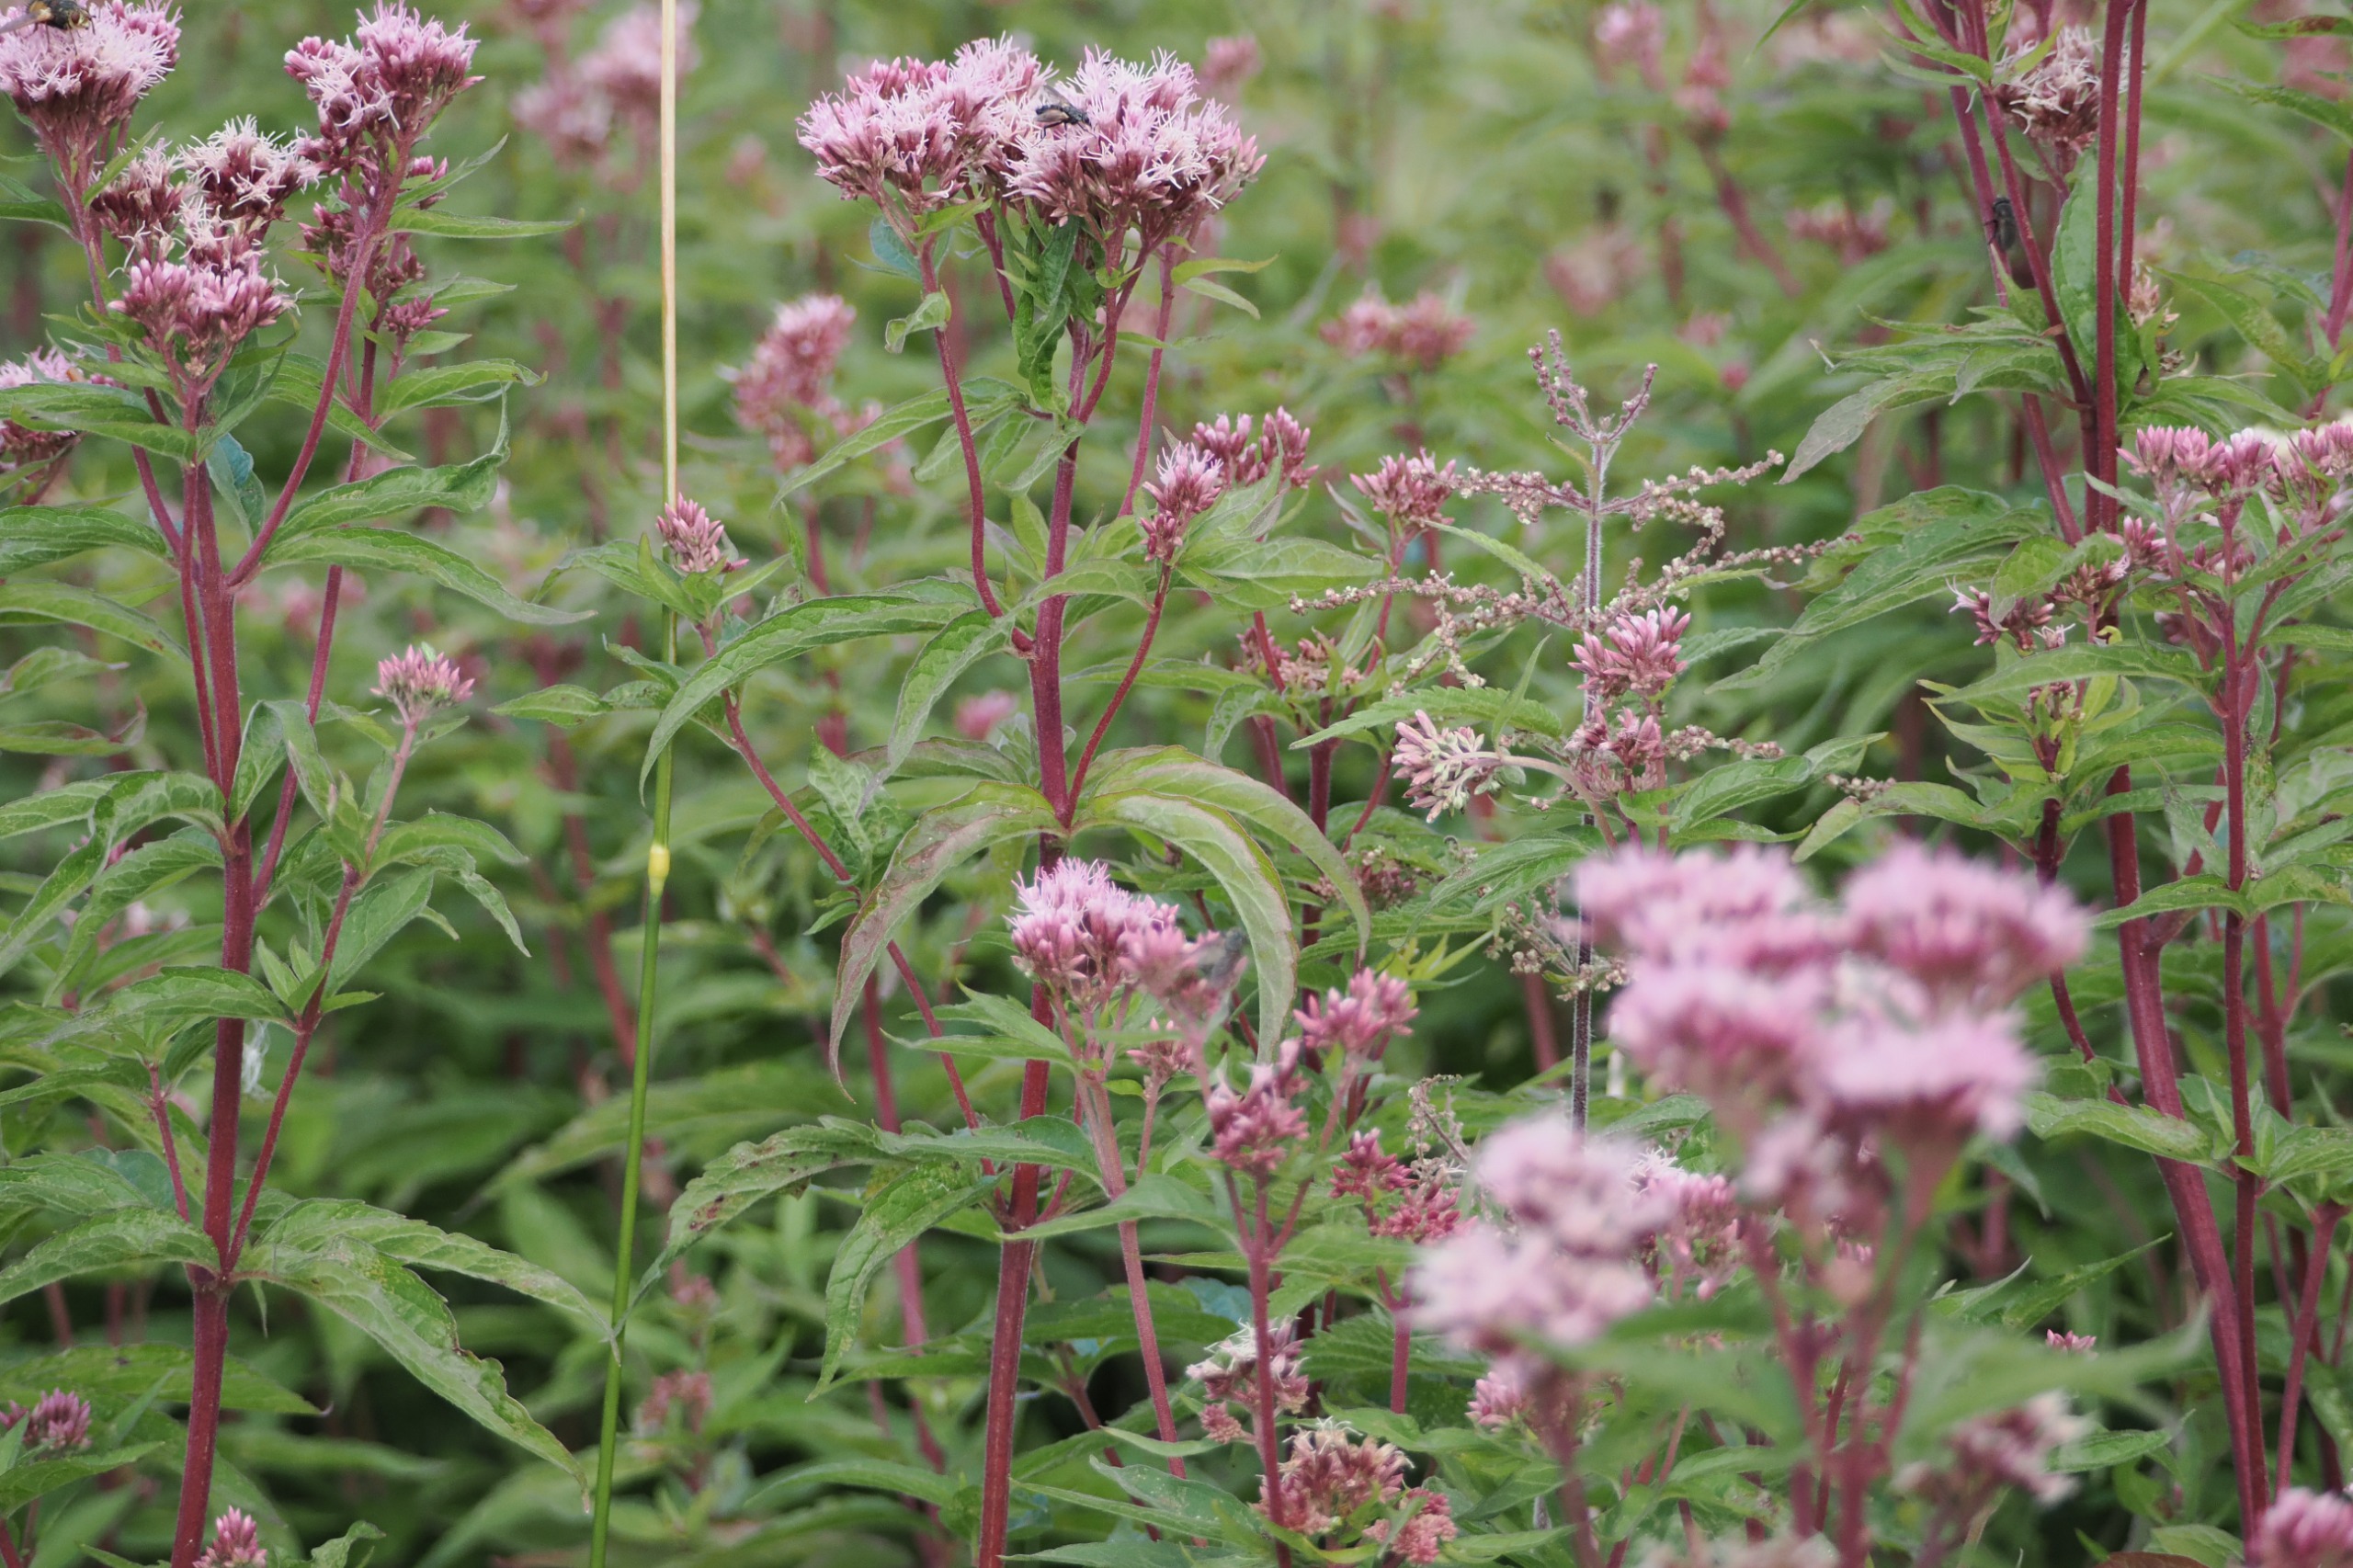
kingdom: Plantae
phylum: Tracheophyta
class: Magnoliopsida
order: Asterales
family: Asteraceae
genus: Eupatorium
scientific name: Eupatorium cannabinum
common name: Hjortetrøst
